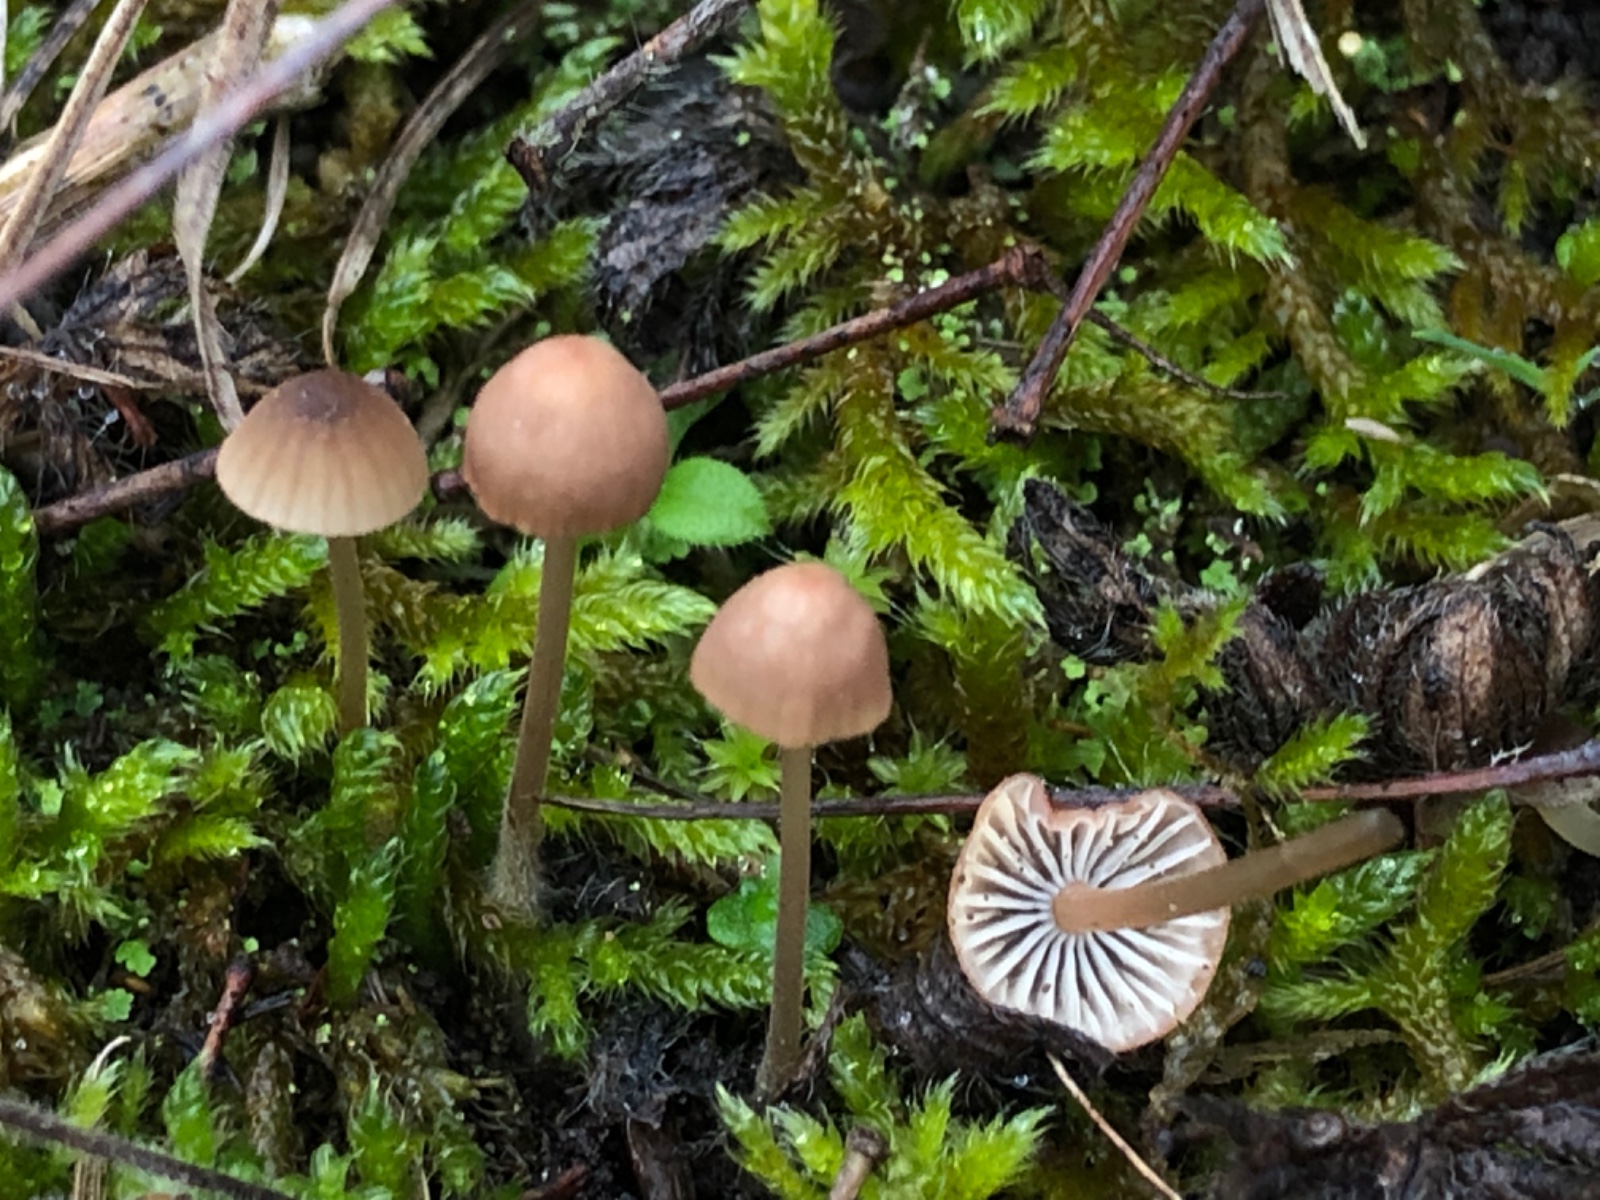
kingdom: Fungi
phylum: Basidiomycota
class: Agaricomycetes
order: Agaricales
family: Mycenaceae
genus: Mycena
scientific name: Mycena olivaceomarginata
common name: brunægget huesvamp
